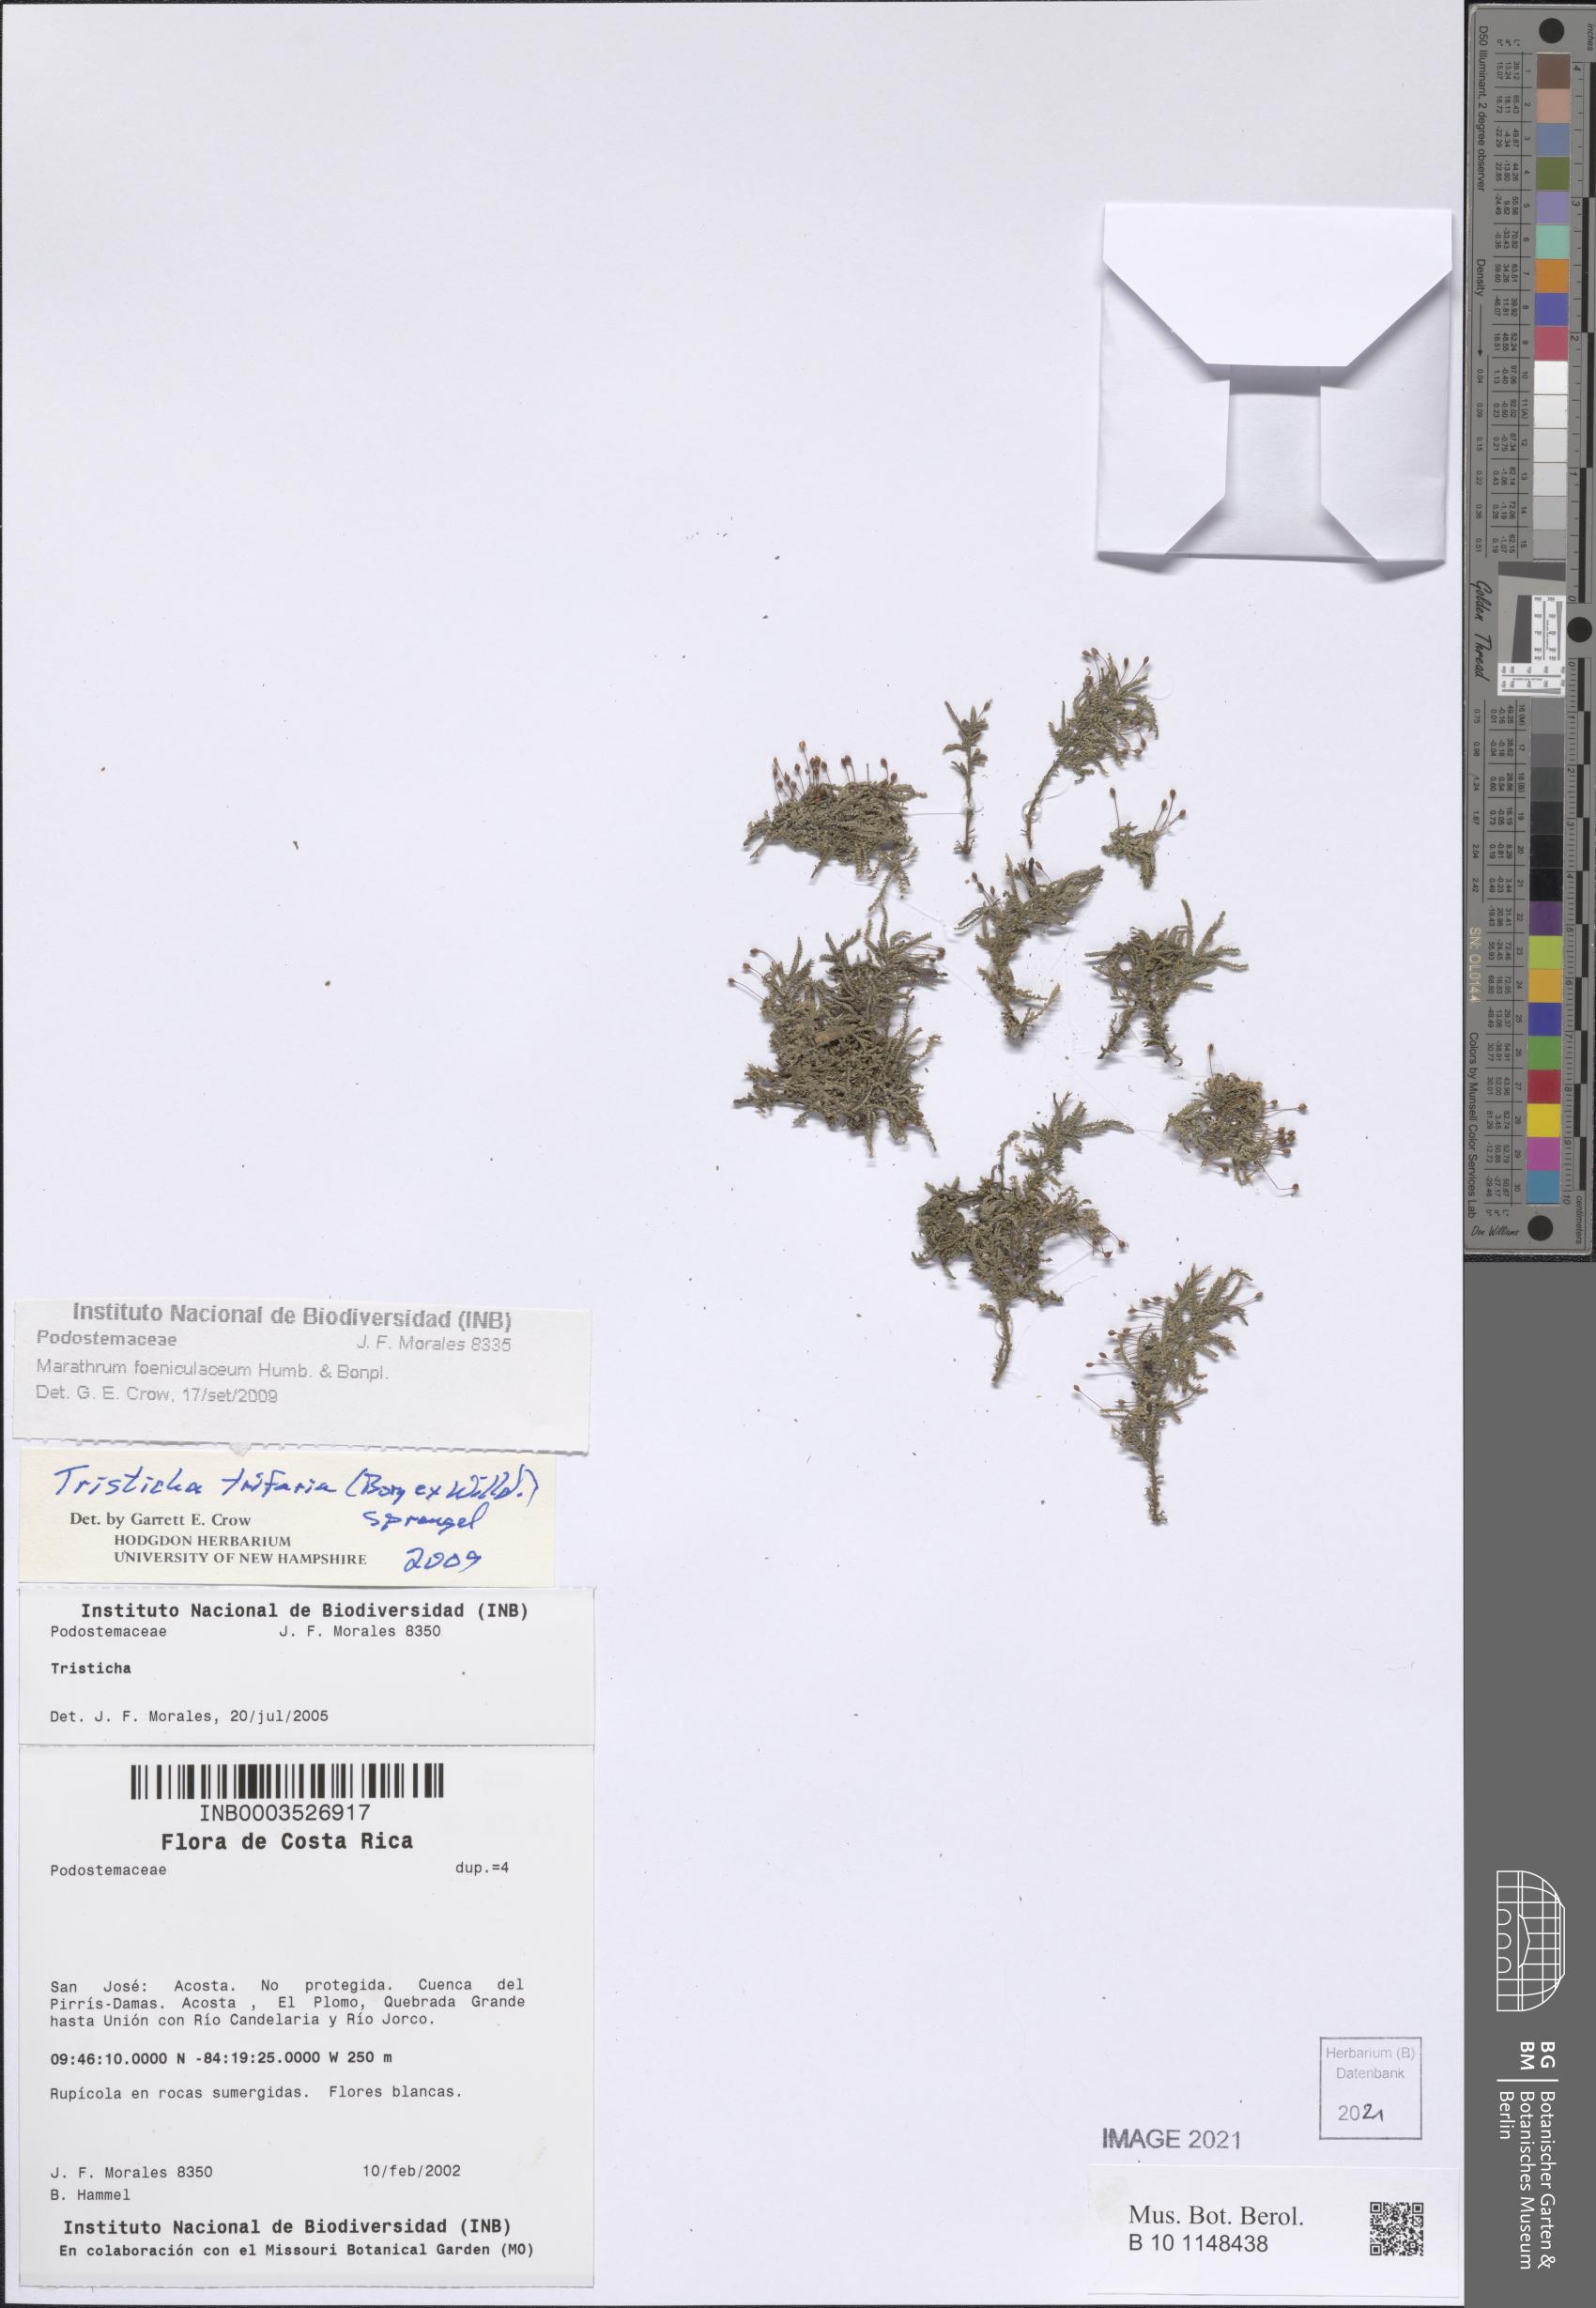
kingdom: Plantae
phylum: Tracheophyta
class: Magnoliopsida
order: Malpighiales
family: Podostemaceae
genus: Tristicha
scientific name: Tristicha trifaria
